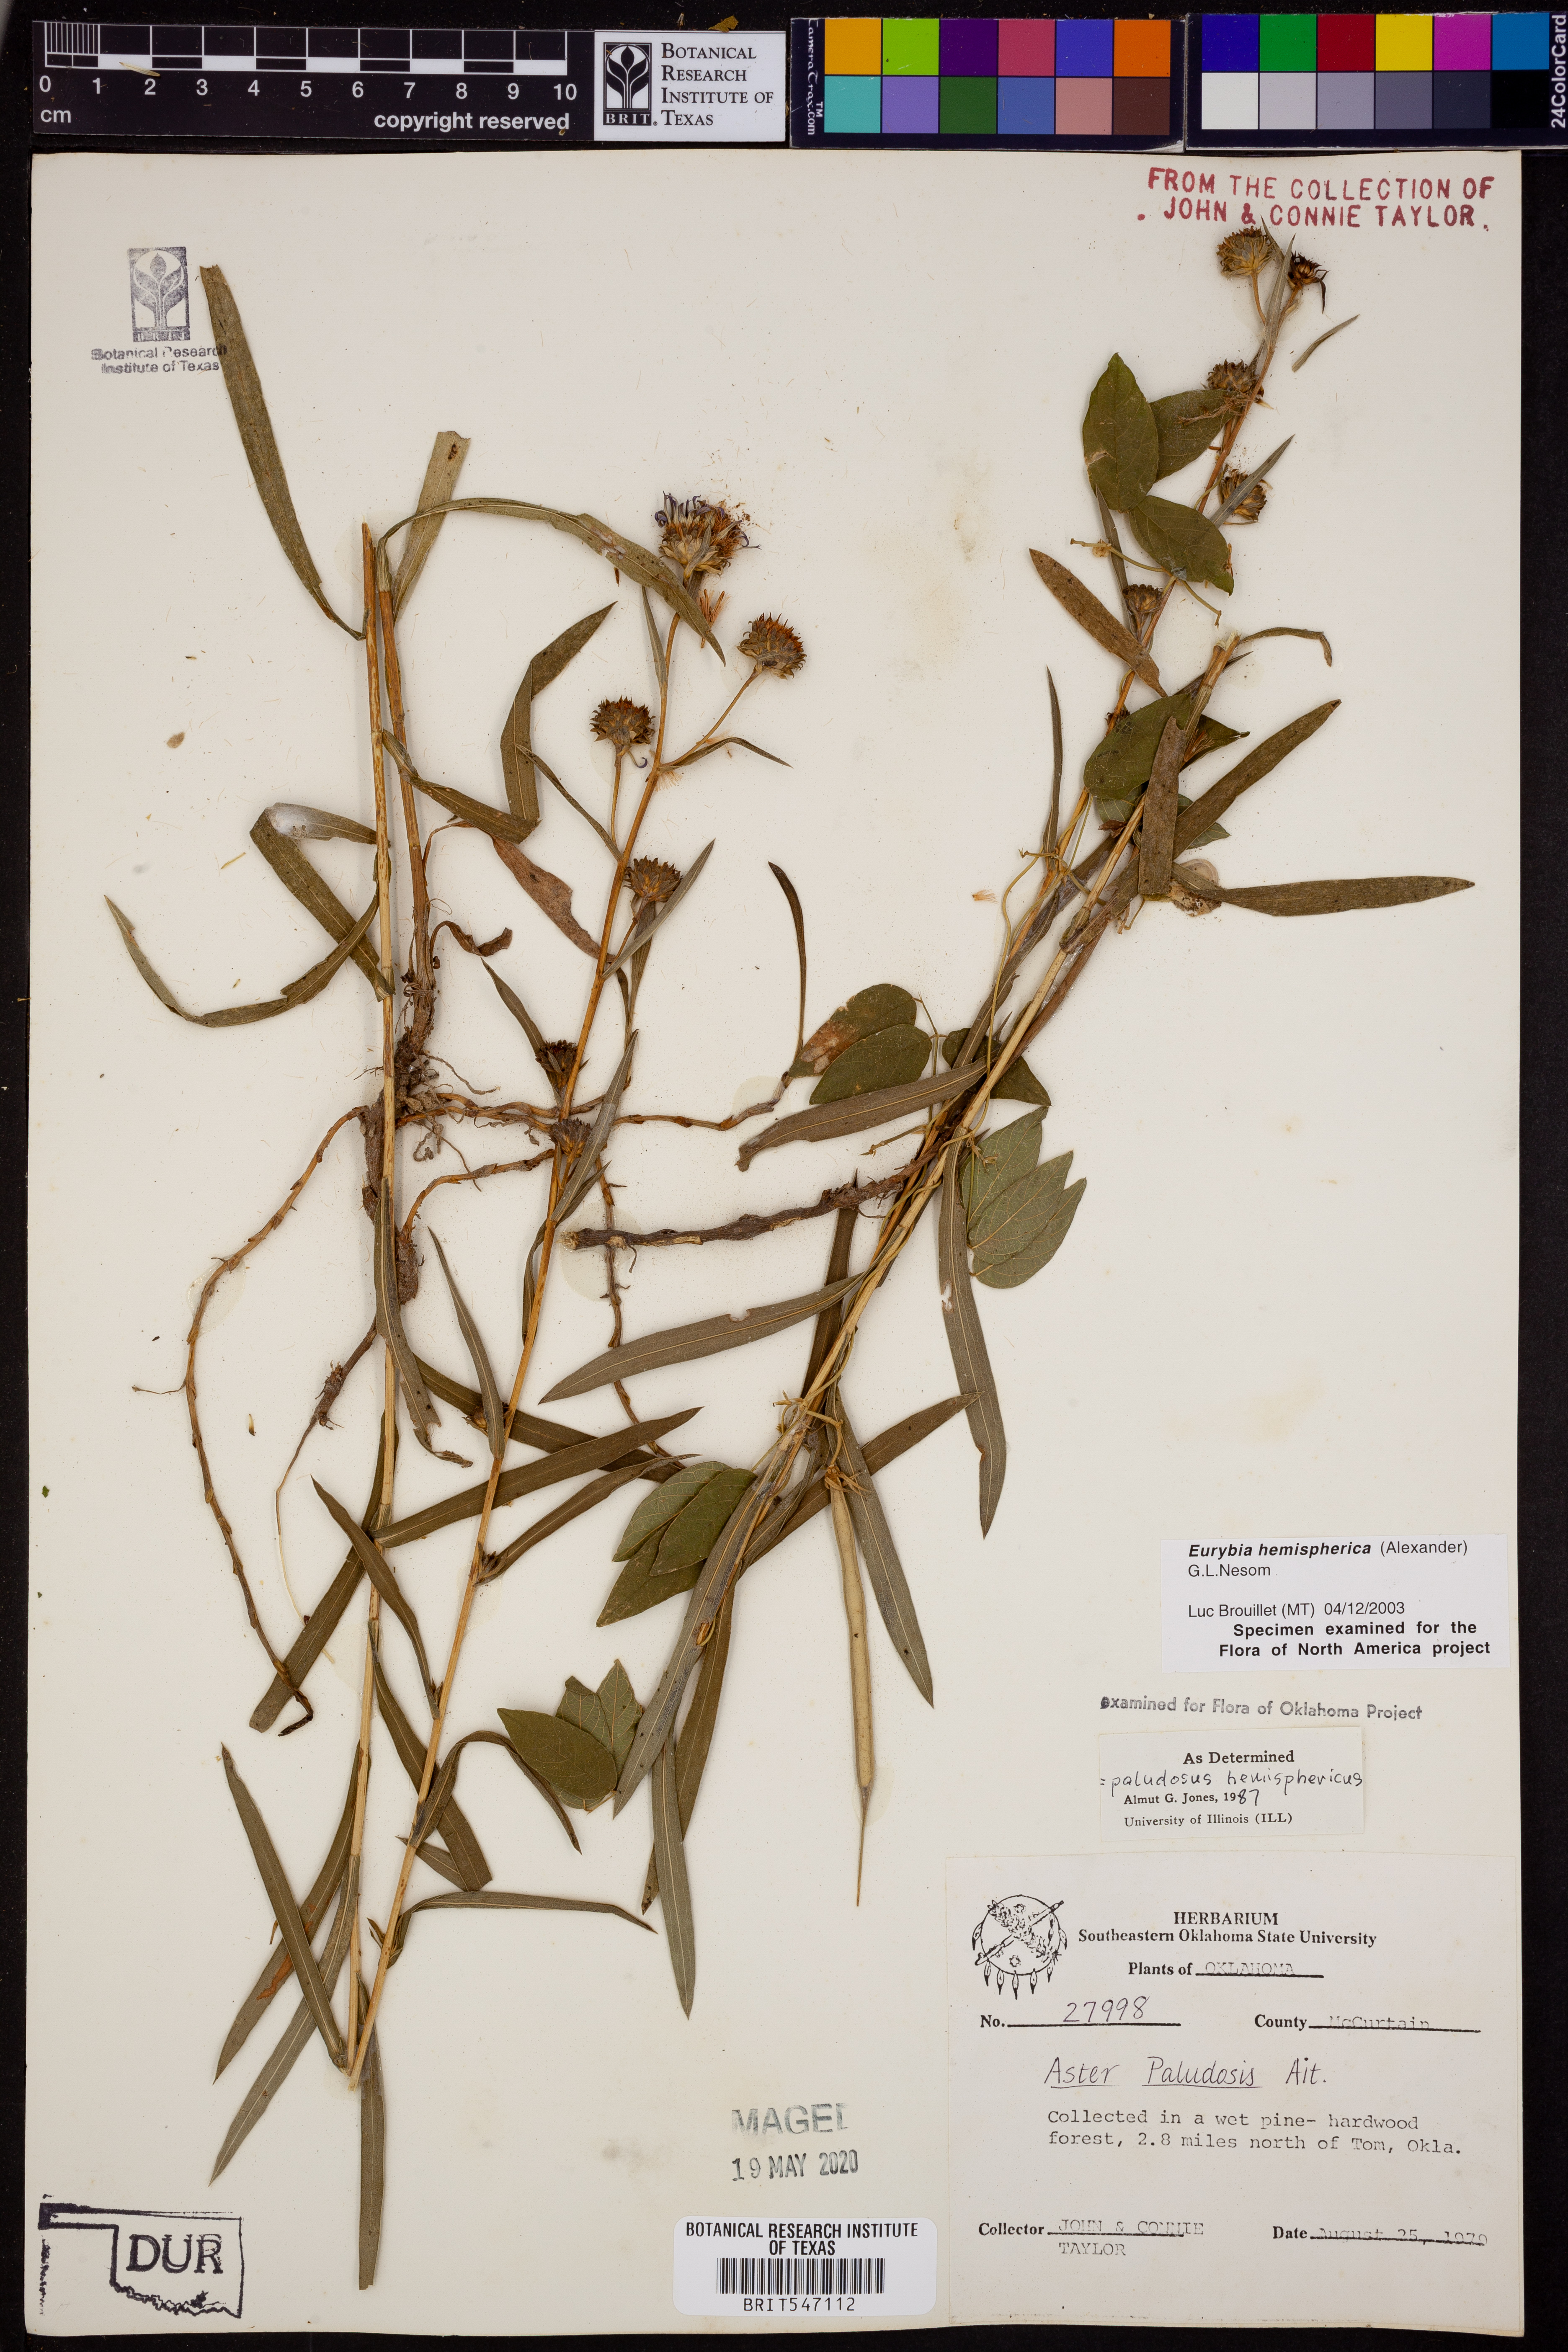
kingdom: Plantae
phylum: Tracheophyta
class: Magnoliopsida
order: Asterales
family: Asteraceae
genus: Eurybia
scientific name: Eurybia hemispherica
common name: Showy aster
